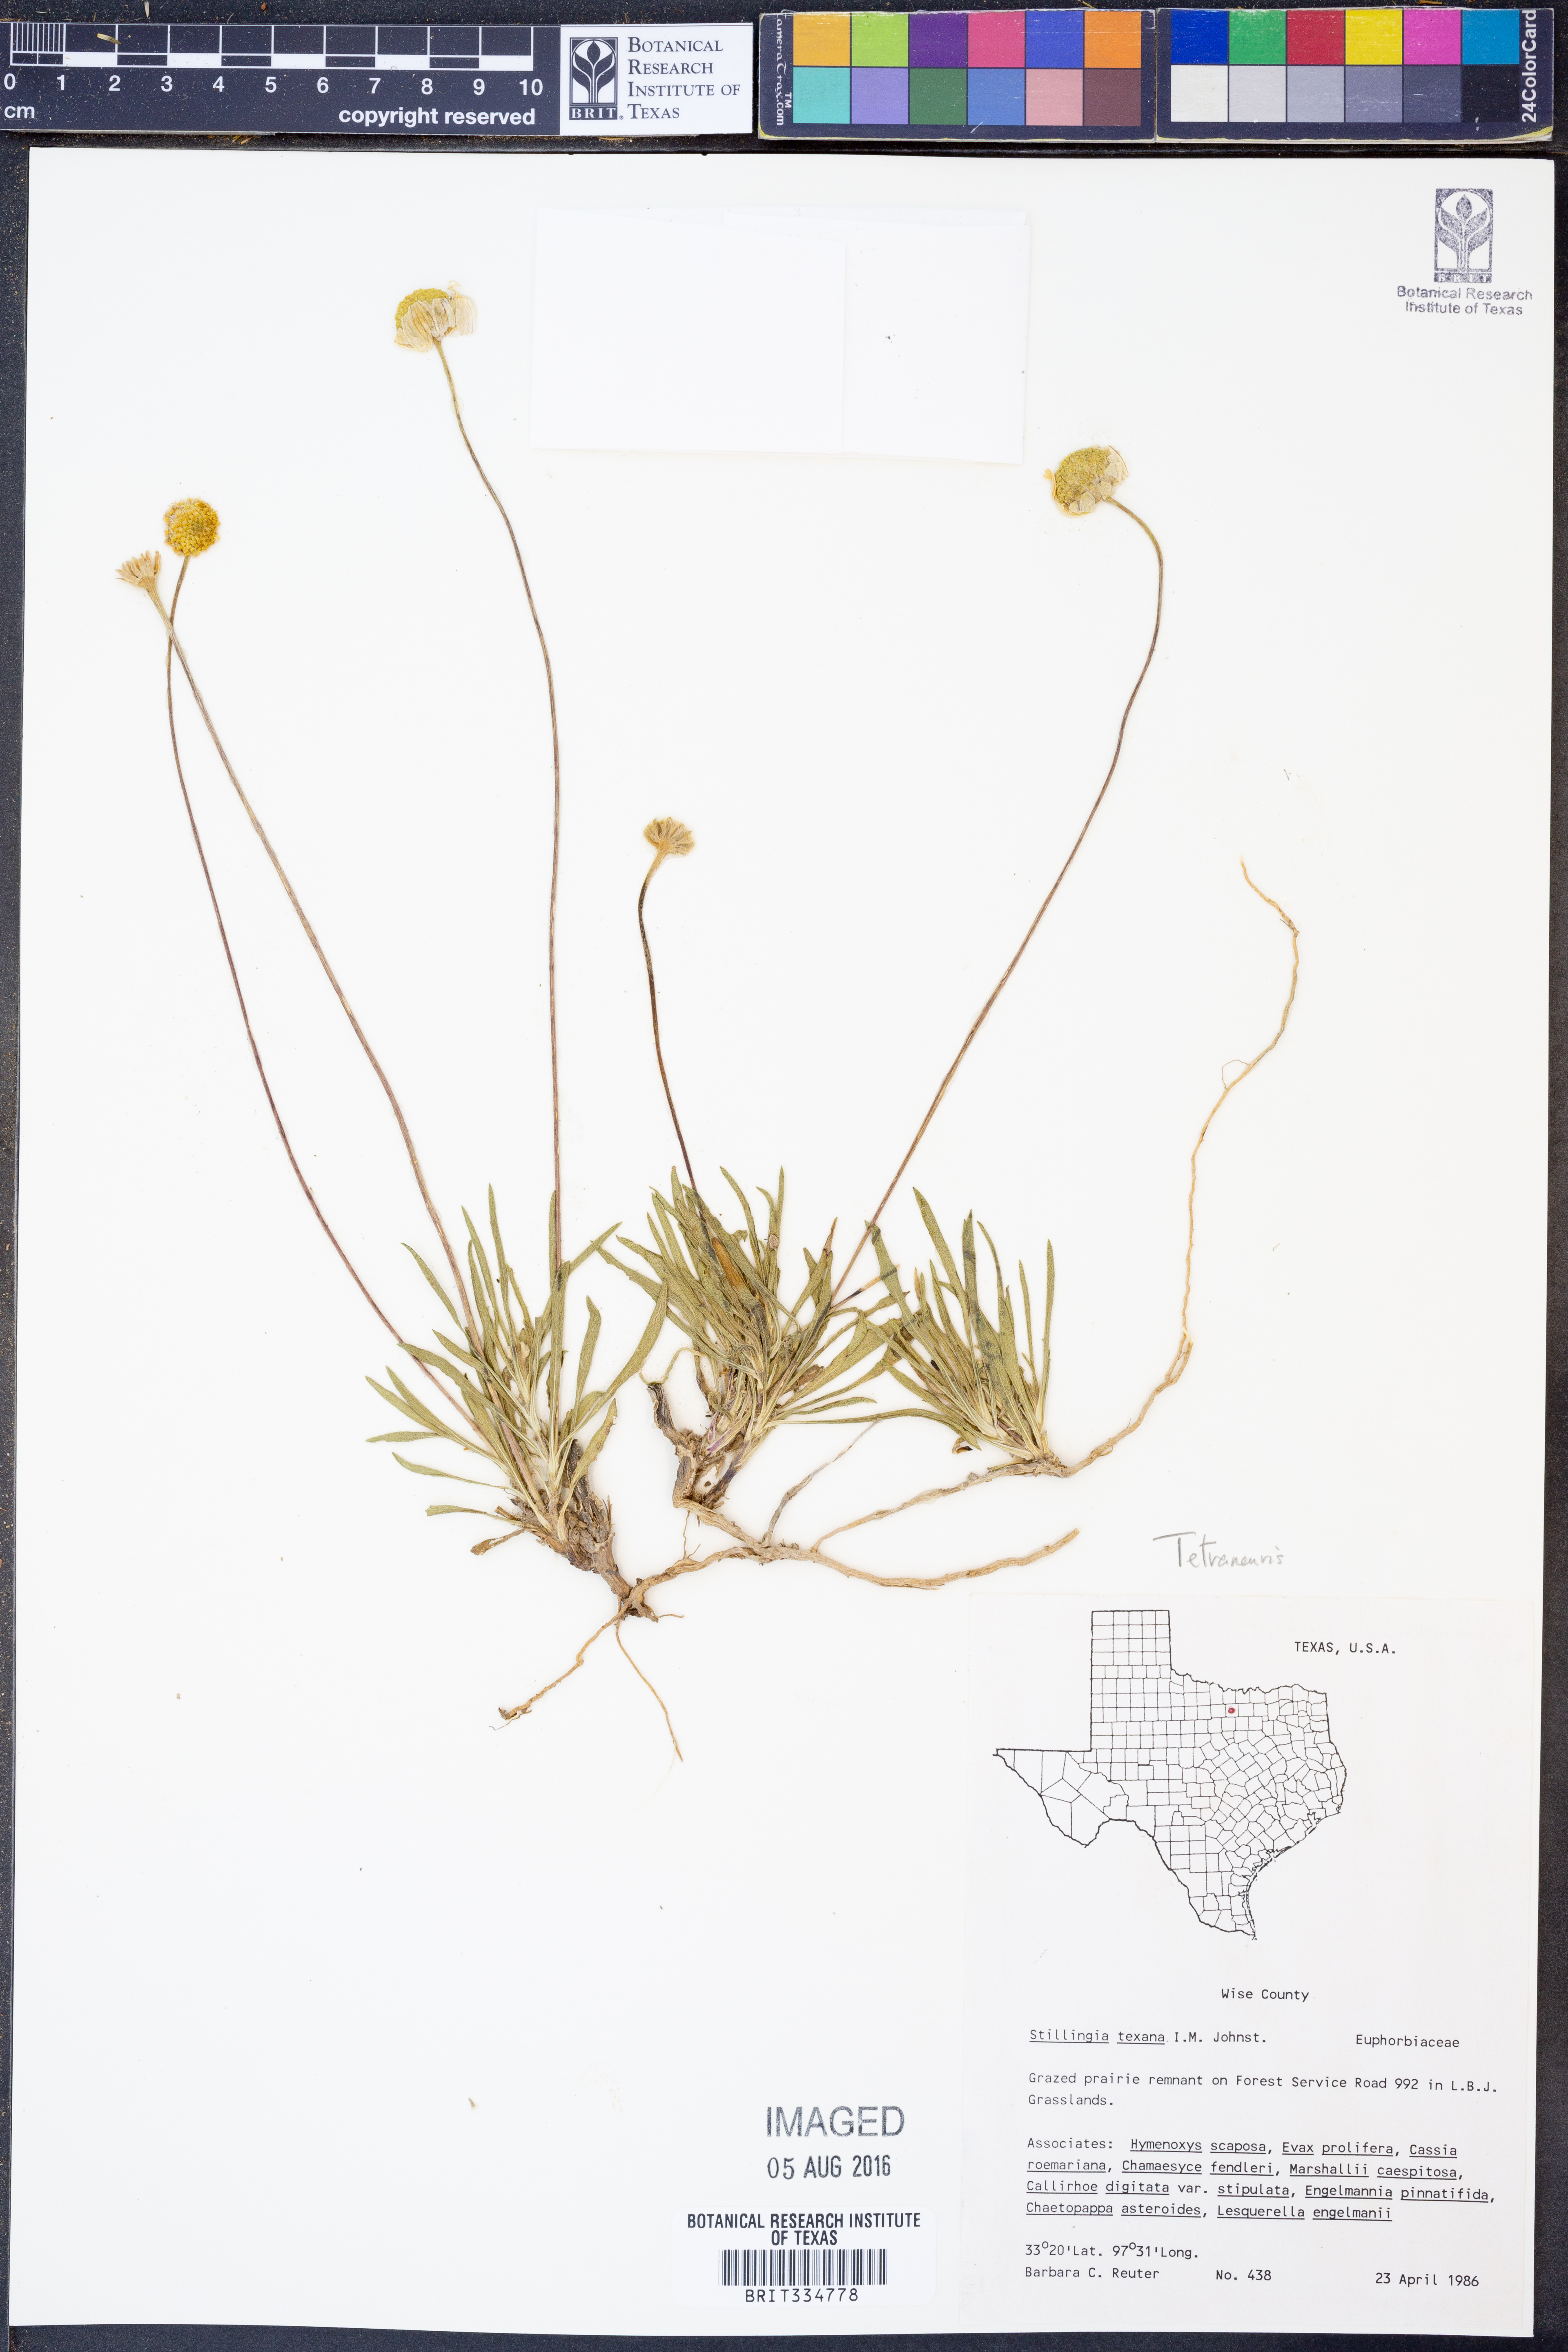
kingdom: Plantae
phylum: Tracheophyta
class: Magnoliopsida
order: Asterales
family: Asteraceae
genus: Tetraneuris
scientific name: Tetraneuris
